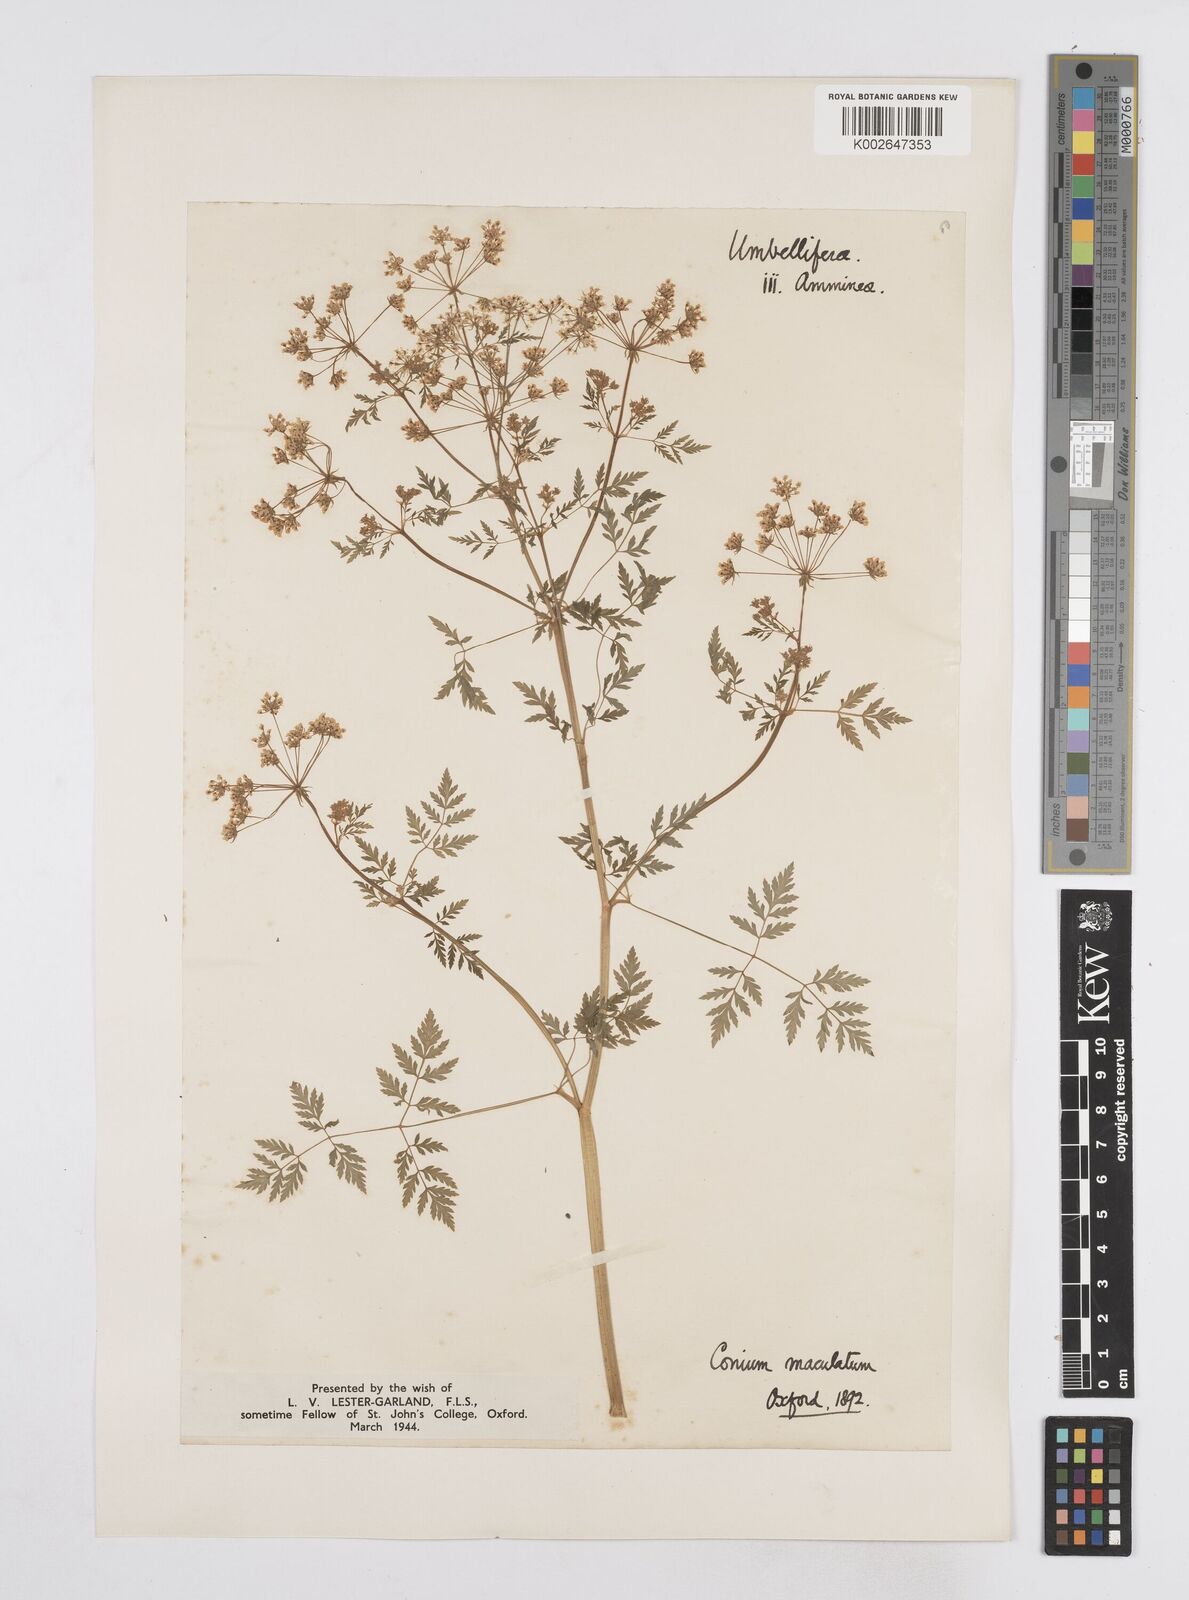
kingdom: Plantae
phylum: Tracheophyta
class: Magnoliopsida
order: Apiales
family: Apiaceae
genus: Conium
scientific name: Conium maculatum
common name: Hemlock
